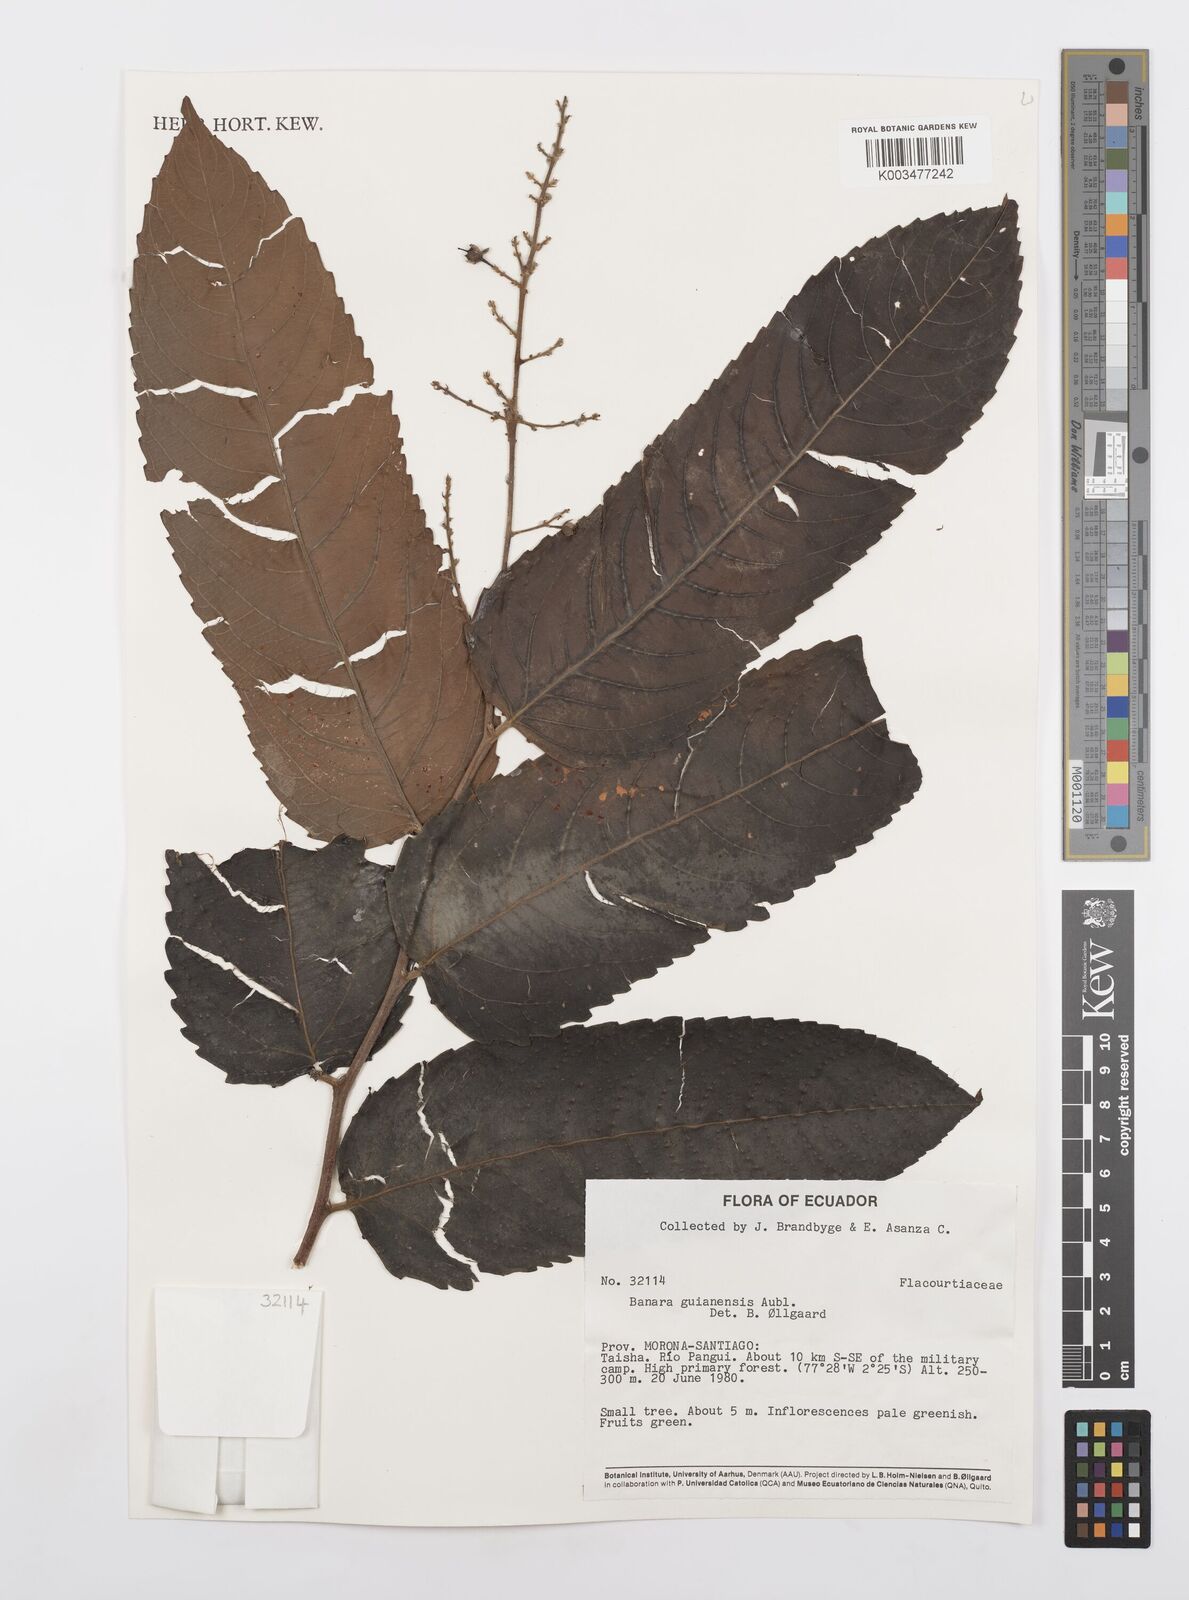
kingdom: Plantae
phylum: Tracheophyta
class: Magnoliopsida
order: Malpighiales
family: Salicaceae
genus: Banara
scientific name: Banara guianensis
